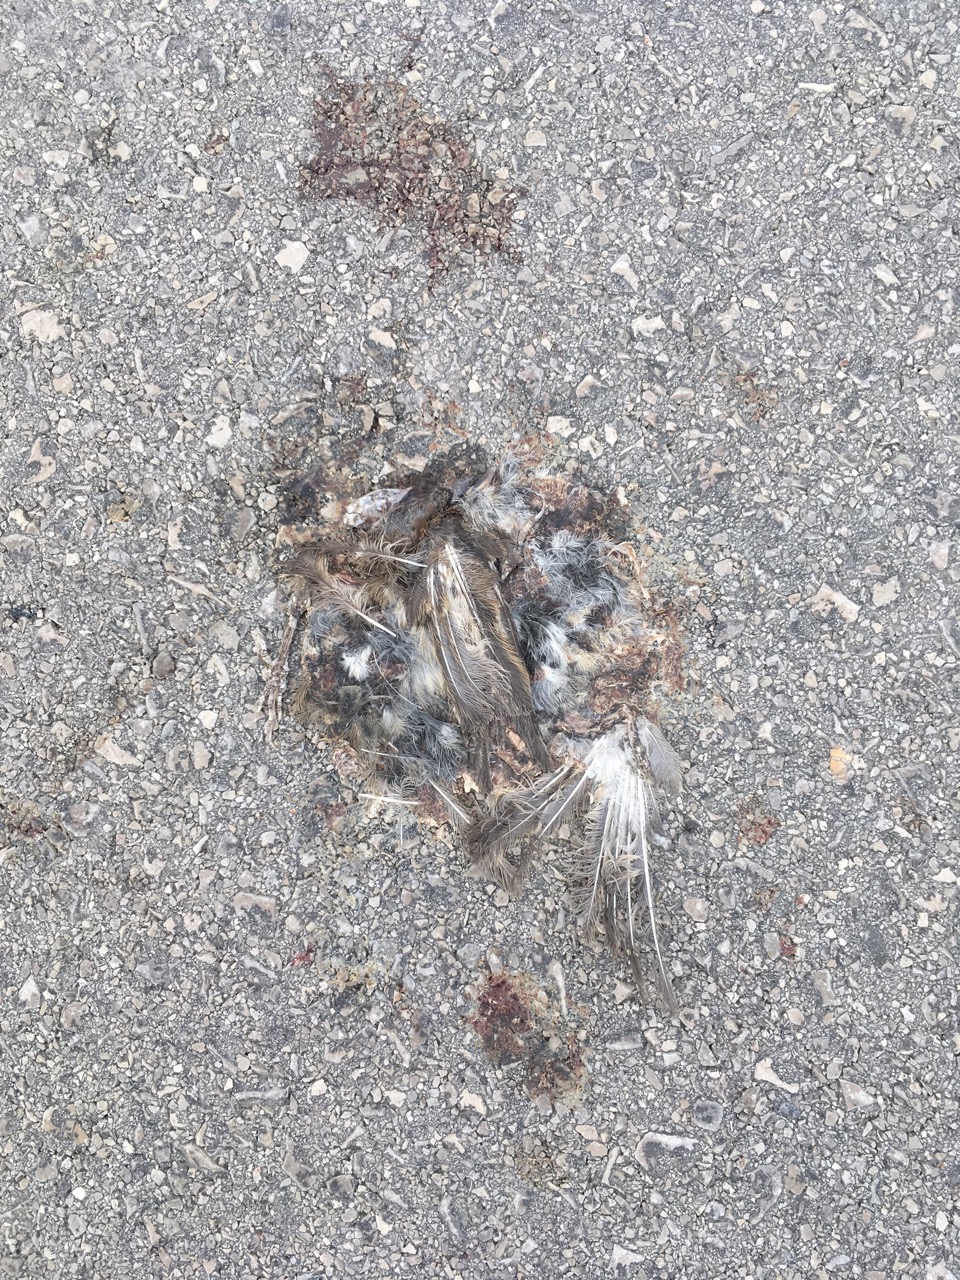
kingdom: Animalia
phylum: Chordata
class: Aves
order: Passeriformes
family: Passeridae
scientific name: Passeridae
